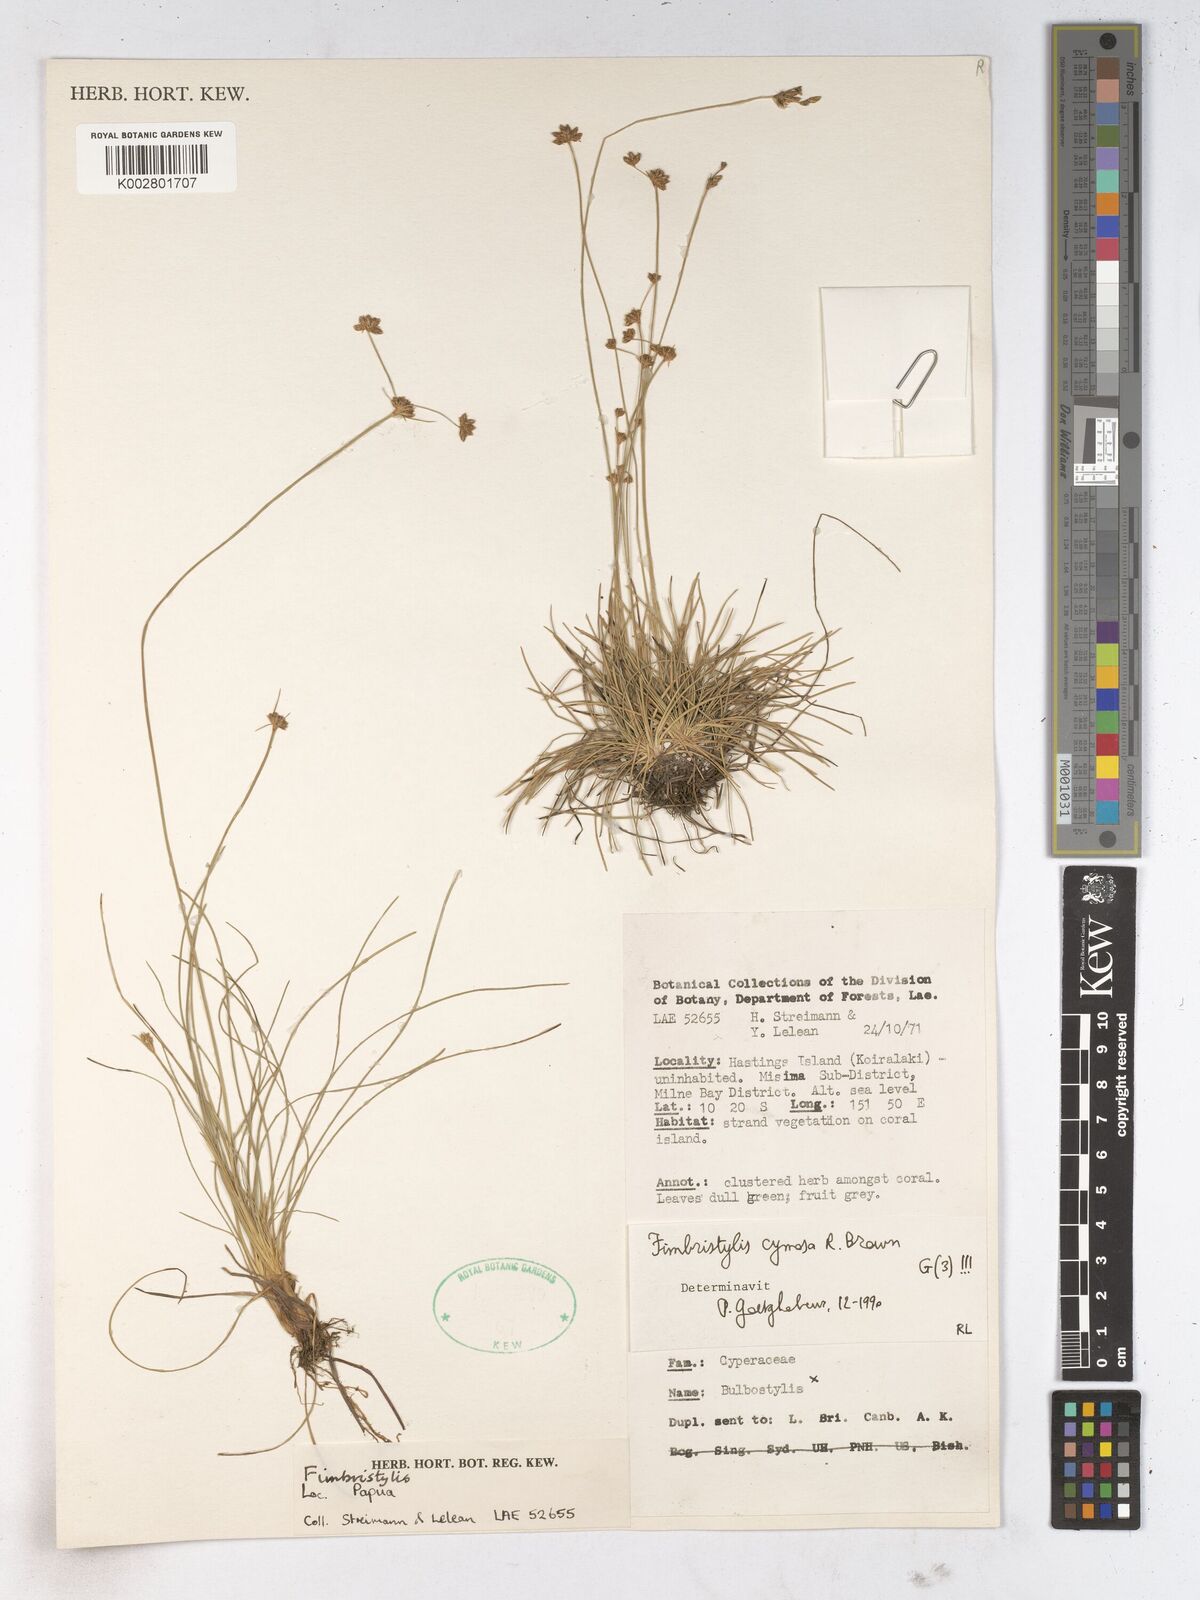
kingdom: Plantae
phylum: Tracheophyta
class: Liliopsida
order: Poales
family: Cyperaceae
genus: Fimbristylis
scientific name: Fimbristylis cymosa
